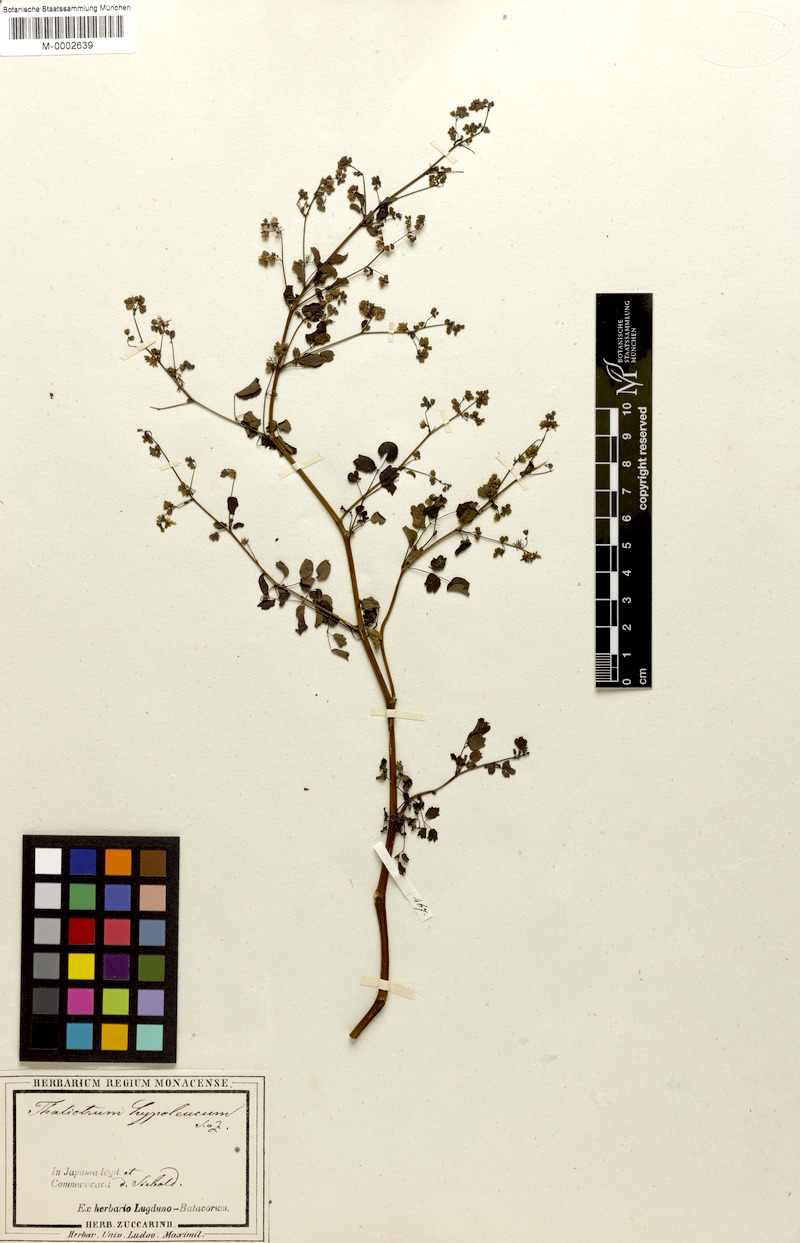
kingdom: Plantae
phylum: Tracheophyta
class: Magnoliopsida
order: Ranunculales
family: Ranunculaceae
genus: Thalictrum
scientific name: Thalictrum minus
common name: Lesser meadow-rue
